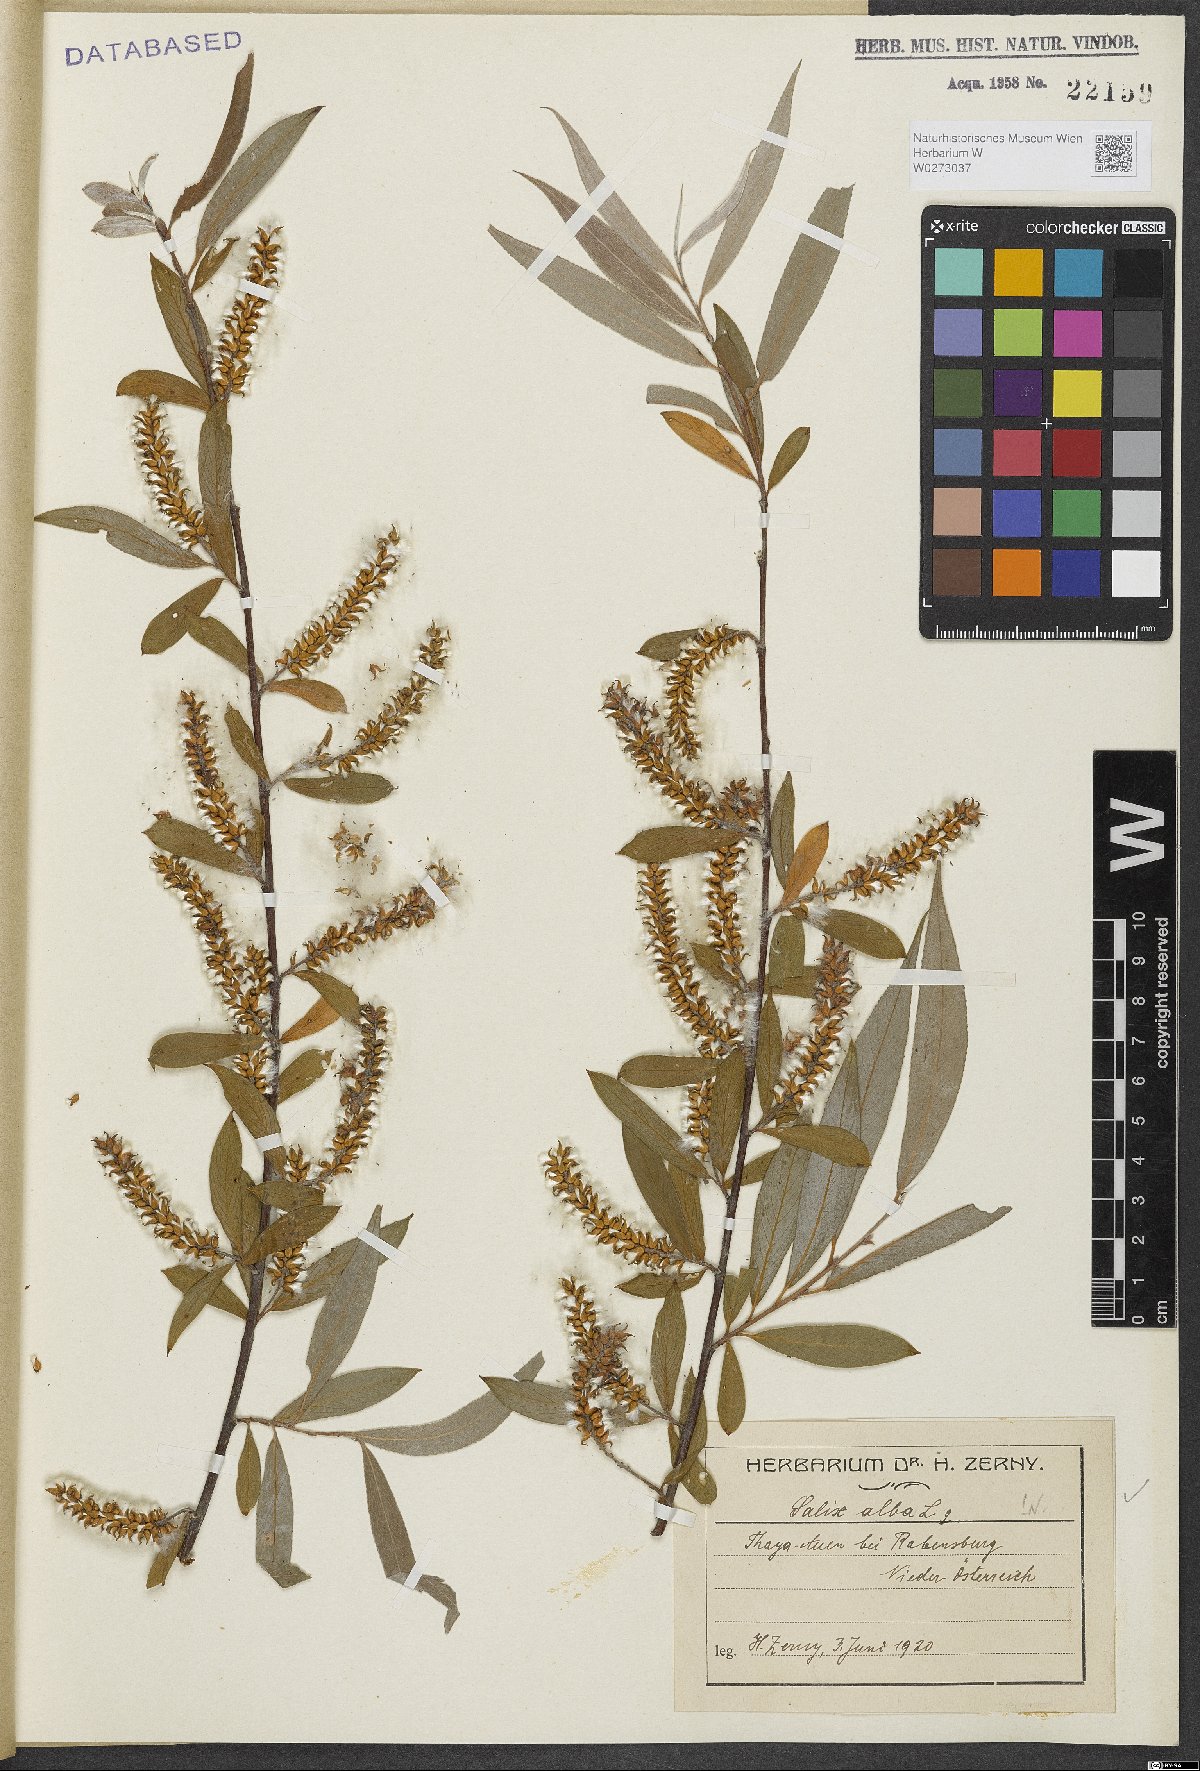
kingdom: Plantae
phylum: Tracheophyta
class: Magnoliopsida
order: Malpighiales
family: Salicaceae
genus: Salix
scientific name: Salix alba
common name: White willow
